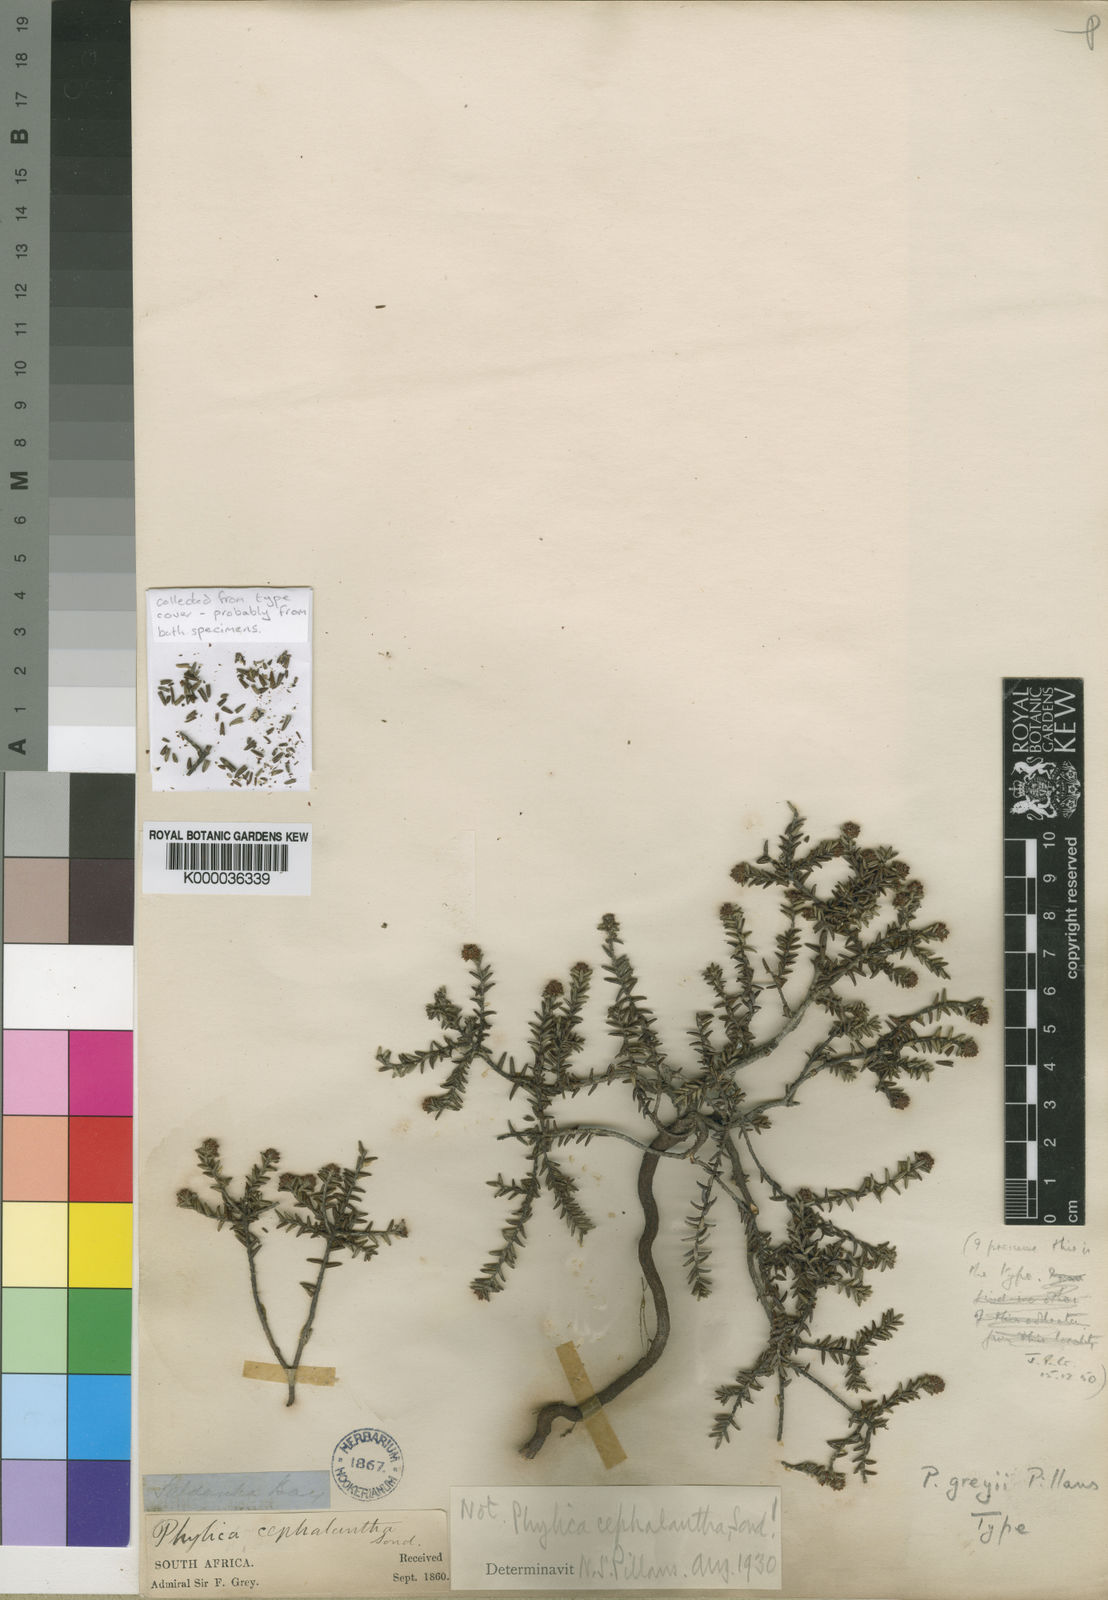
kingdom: Plantae
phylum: Tracheophyta
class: Magnoliopsida
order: Rosales
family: Rhamnaceae
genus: Phylica
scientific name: Phylica greyii
